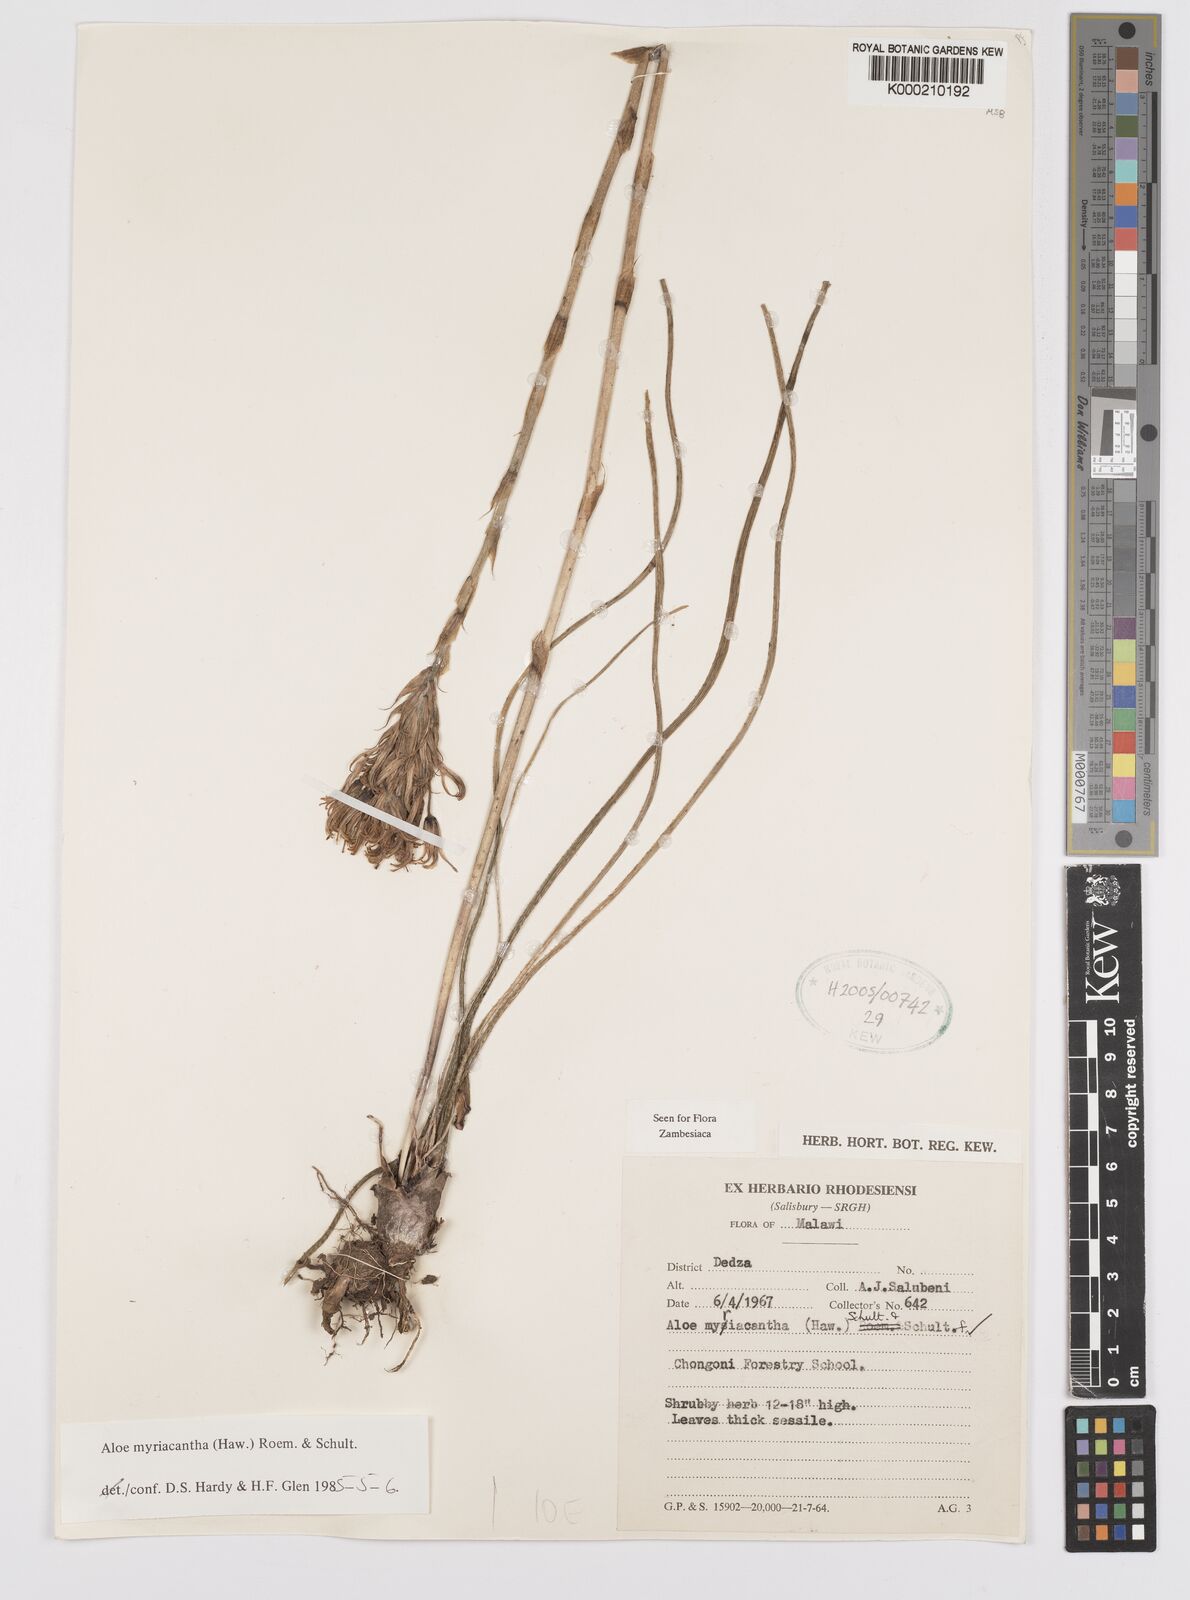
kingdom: Plantae
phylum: Tracheophyta
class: Liliopsida
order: Asparagales
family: Asphodelaceae
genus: Aloe
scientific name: Aloe
